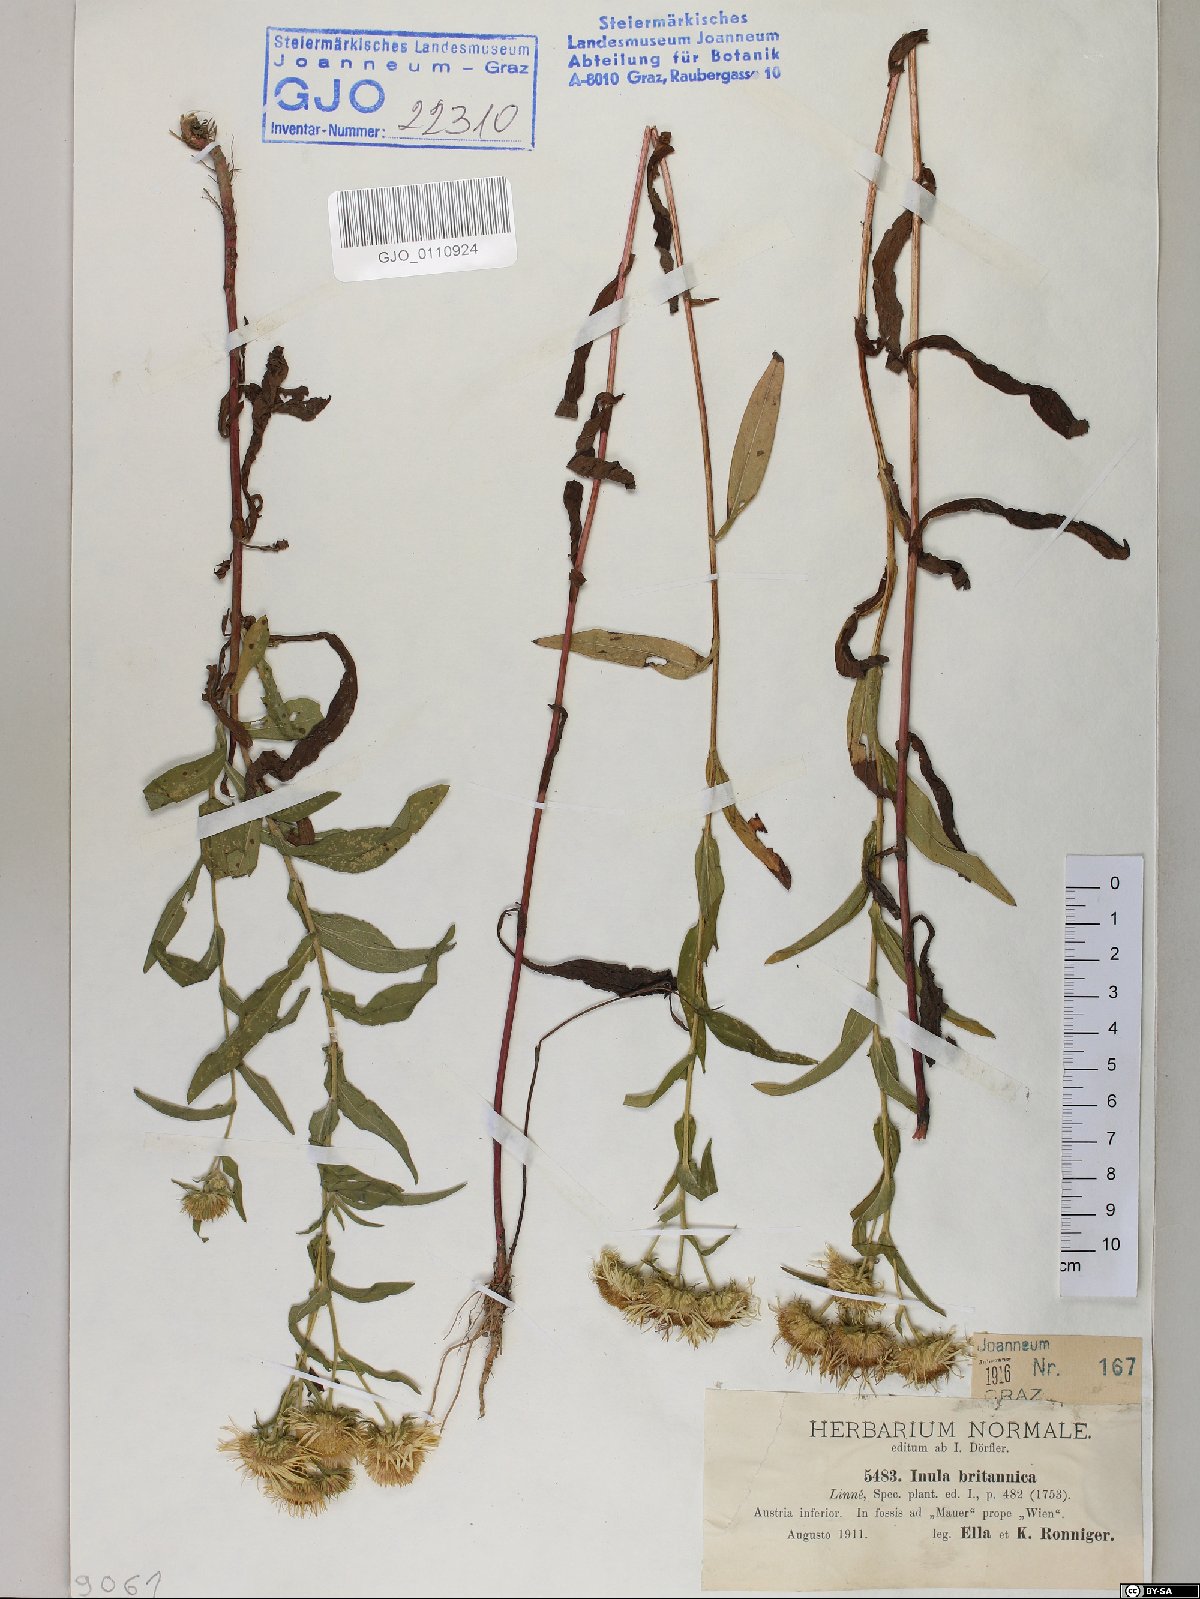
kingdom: Plantae
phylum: Tracheophyta
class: Magnoliopsida
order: Asterales
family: Asteraceae
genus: Pentanema
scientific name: Pentanema britannicum
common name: British elecampane
